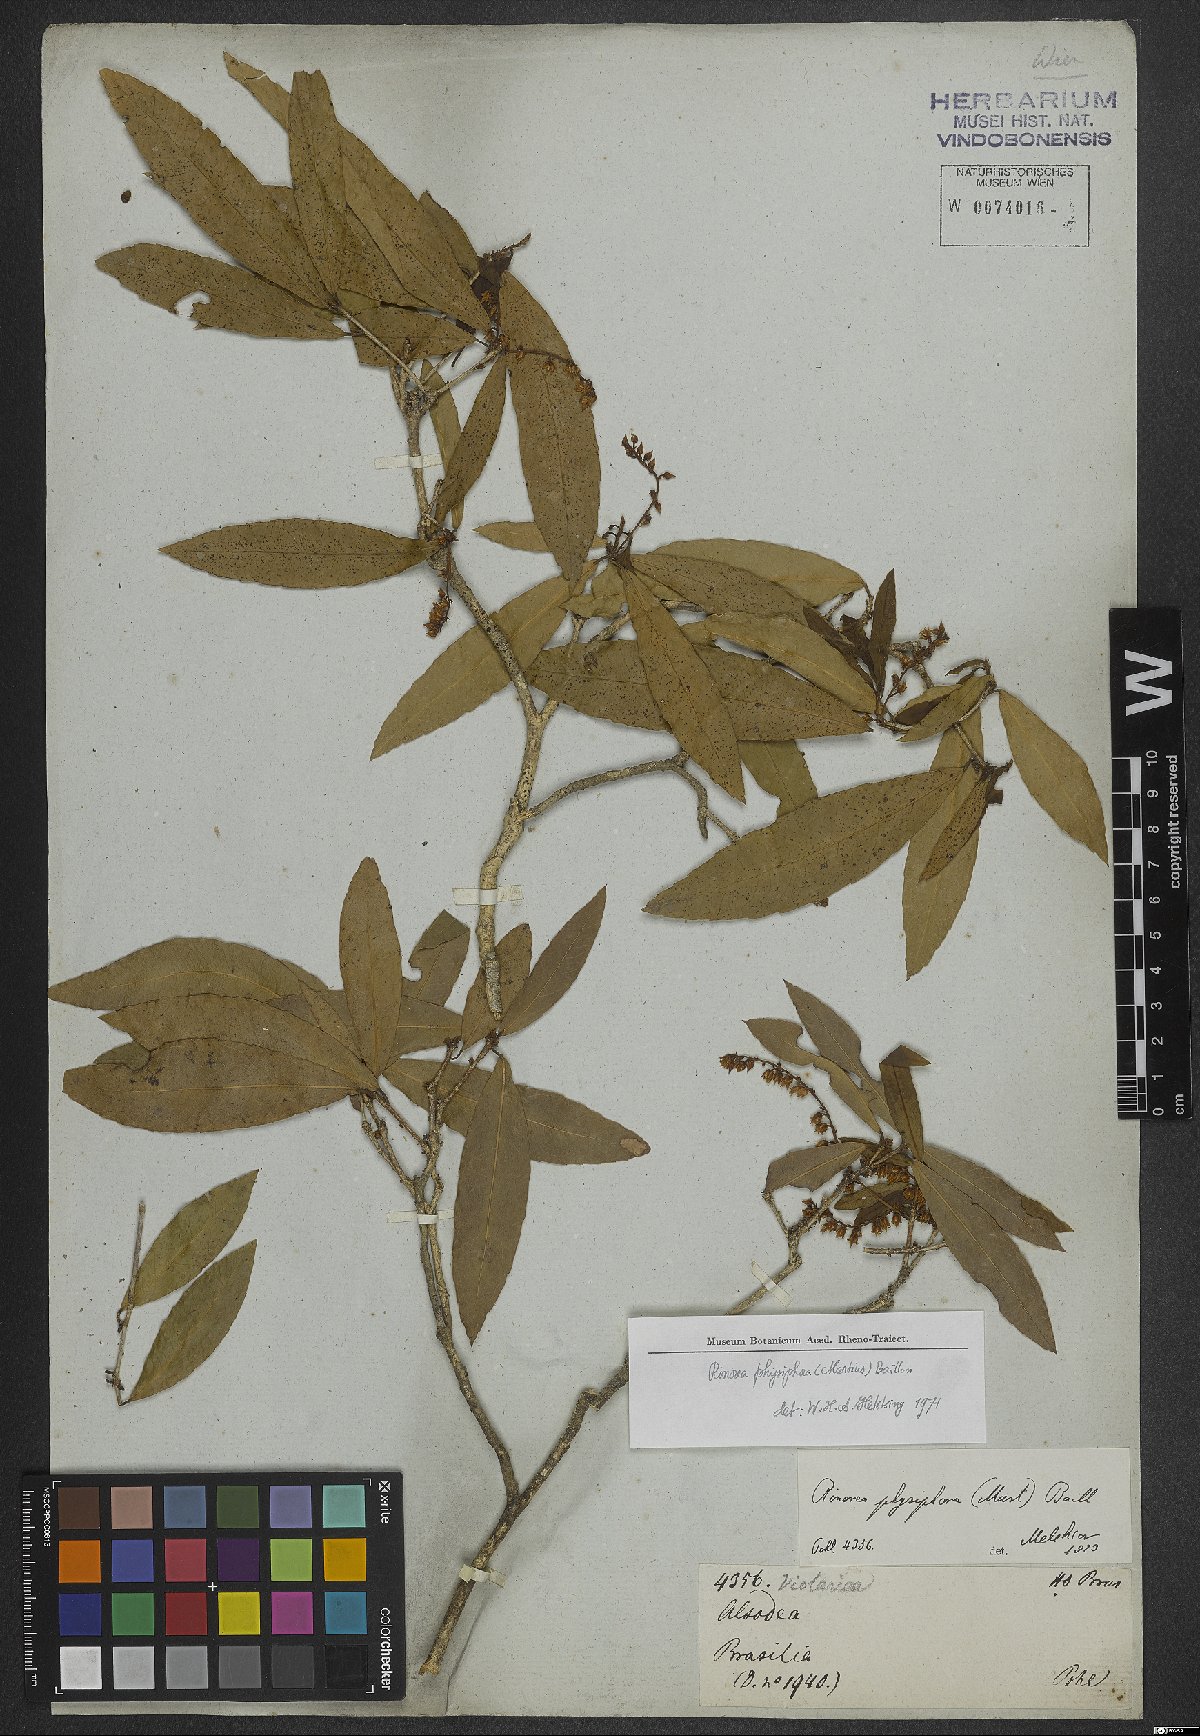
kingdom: Plantae
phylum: Tracheophyta
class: Magnoliopsida
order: Malpighiales
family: Violaceae
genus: Rinorea
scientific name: Rinorea laevigata
